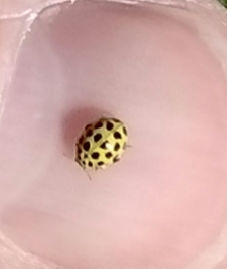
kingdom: Animalia
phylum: Arthropoda
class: Insecta
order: Coleoptera
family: Coccinellidae
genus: Psyllobora
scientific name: Psyllobora vigintiduopunctata
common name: Toogtyveplettet mariehøne
